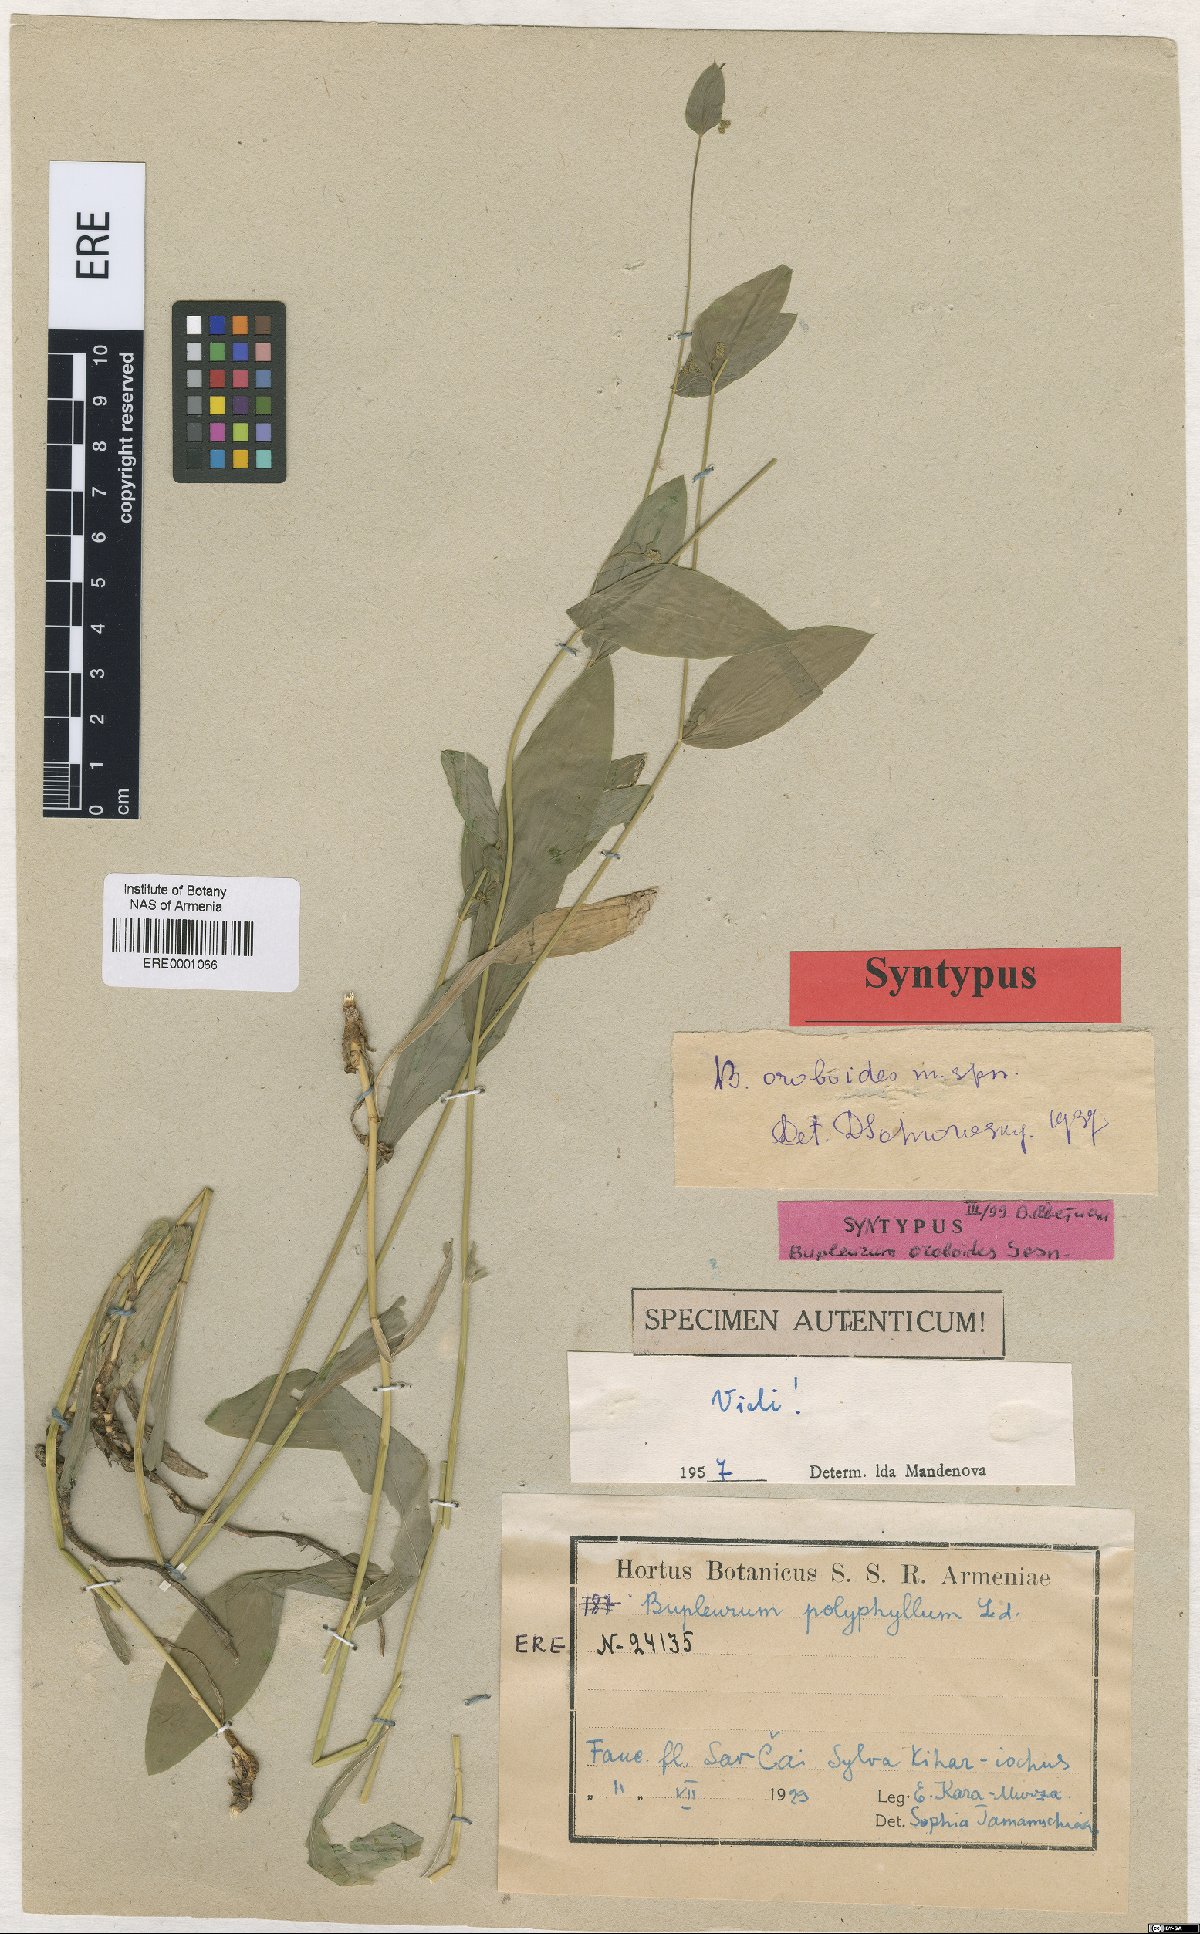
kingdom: Plantae
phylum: Tracheophyta
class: Magnoliopsida
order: Apiales
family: Apiaceae
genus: Bupleurum
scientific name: Bupleurum polyphyllum
